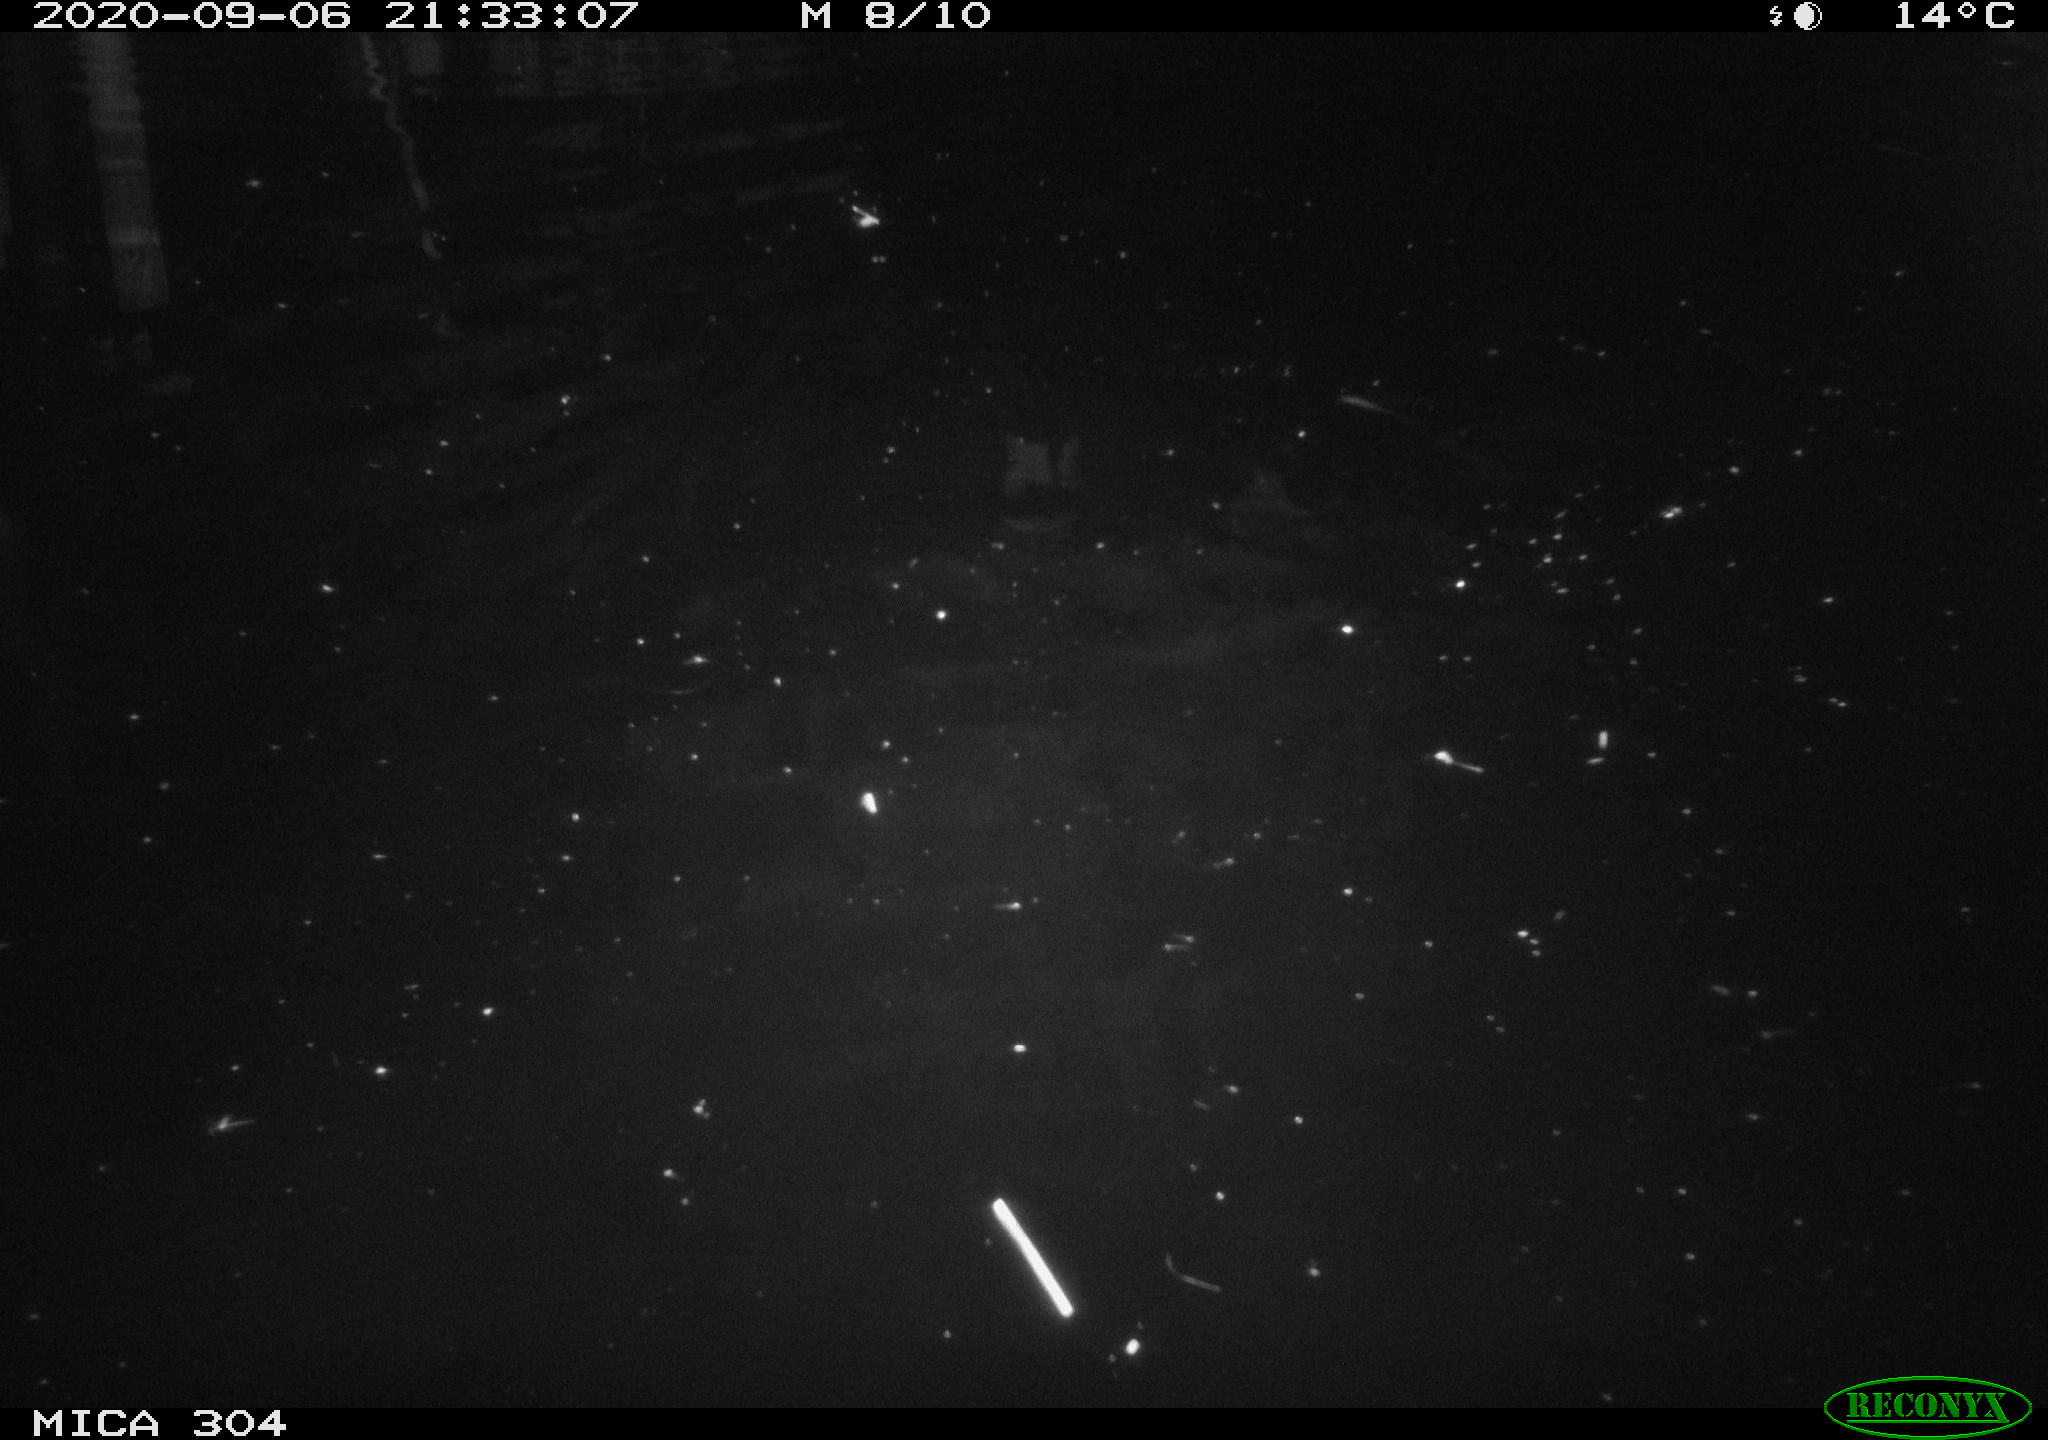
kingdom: Animalia
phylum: Chordata
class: Mammalia
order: Rodentia
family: Cricetidae
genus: Ondatra
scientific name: Ondatra zibethicus
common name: Muskrat
